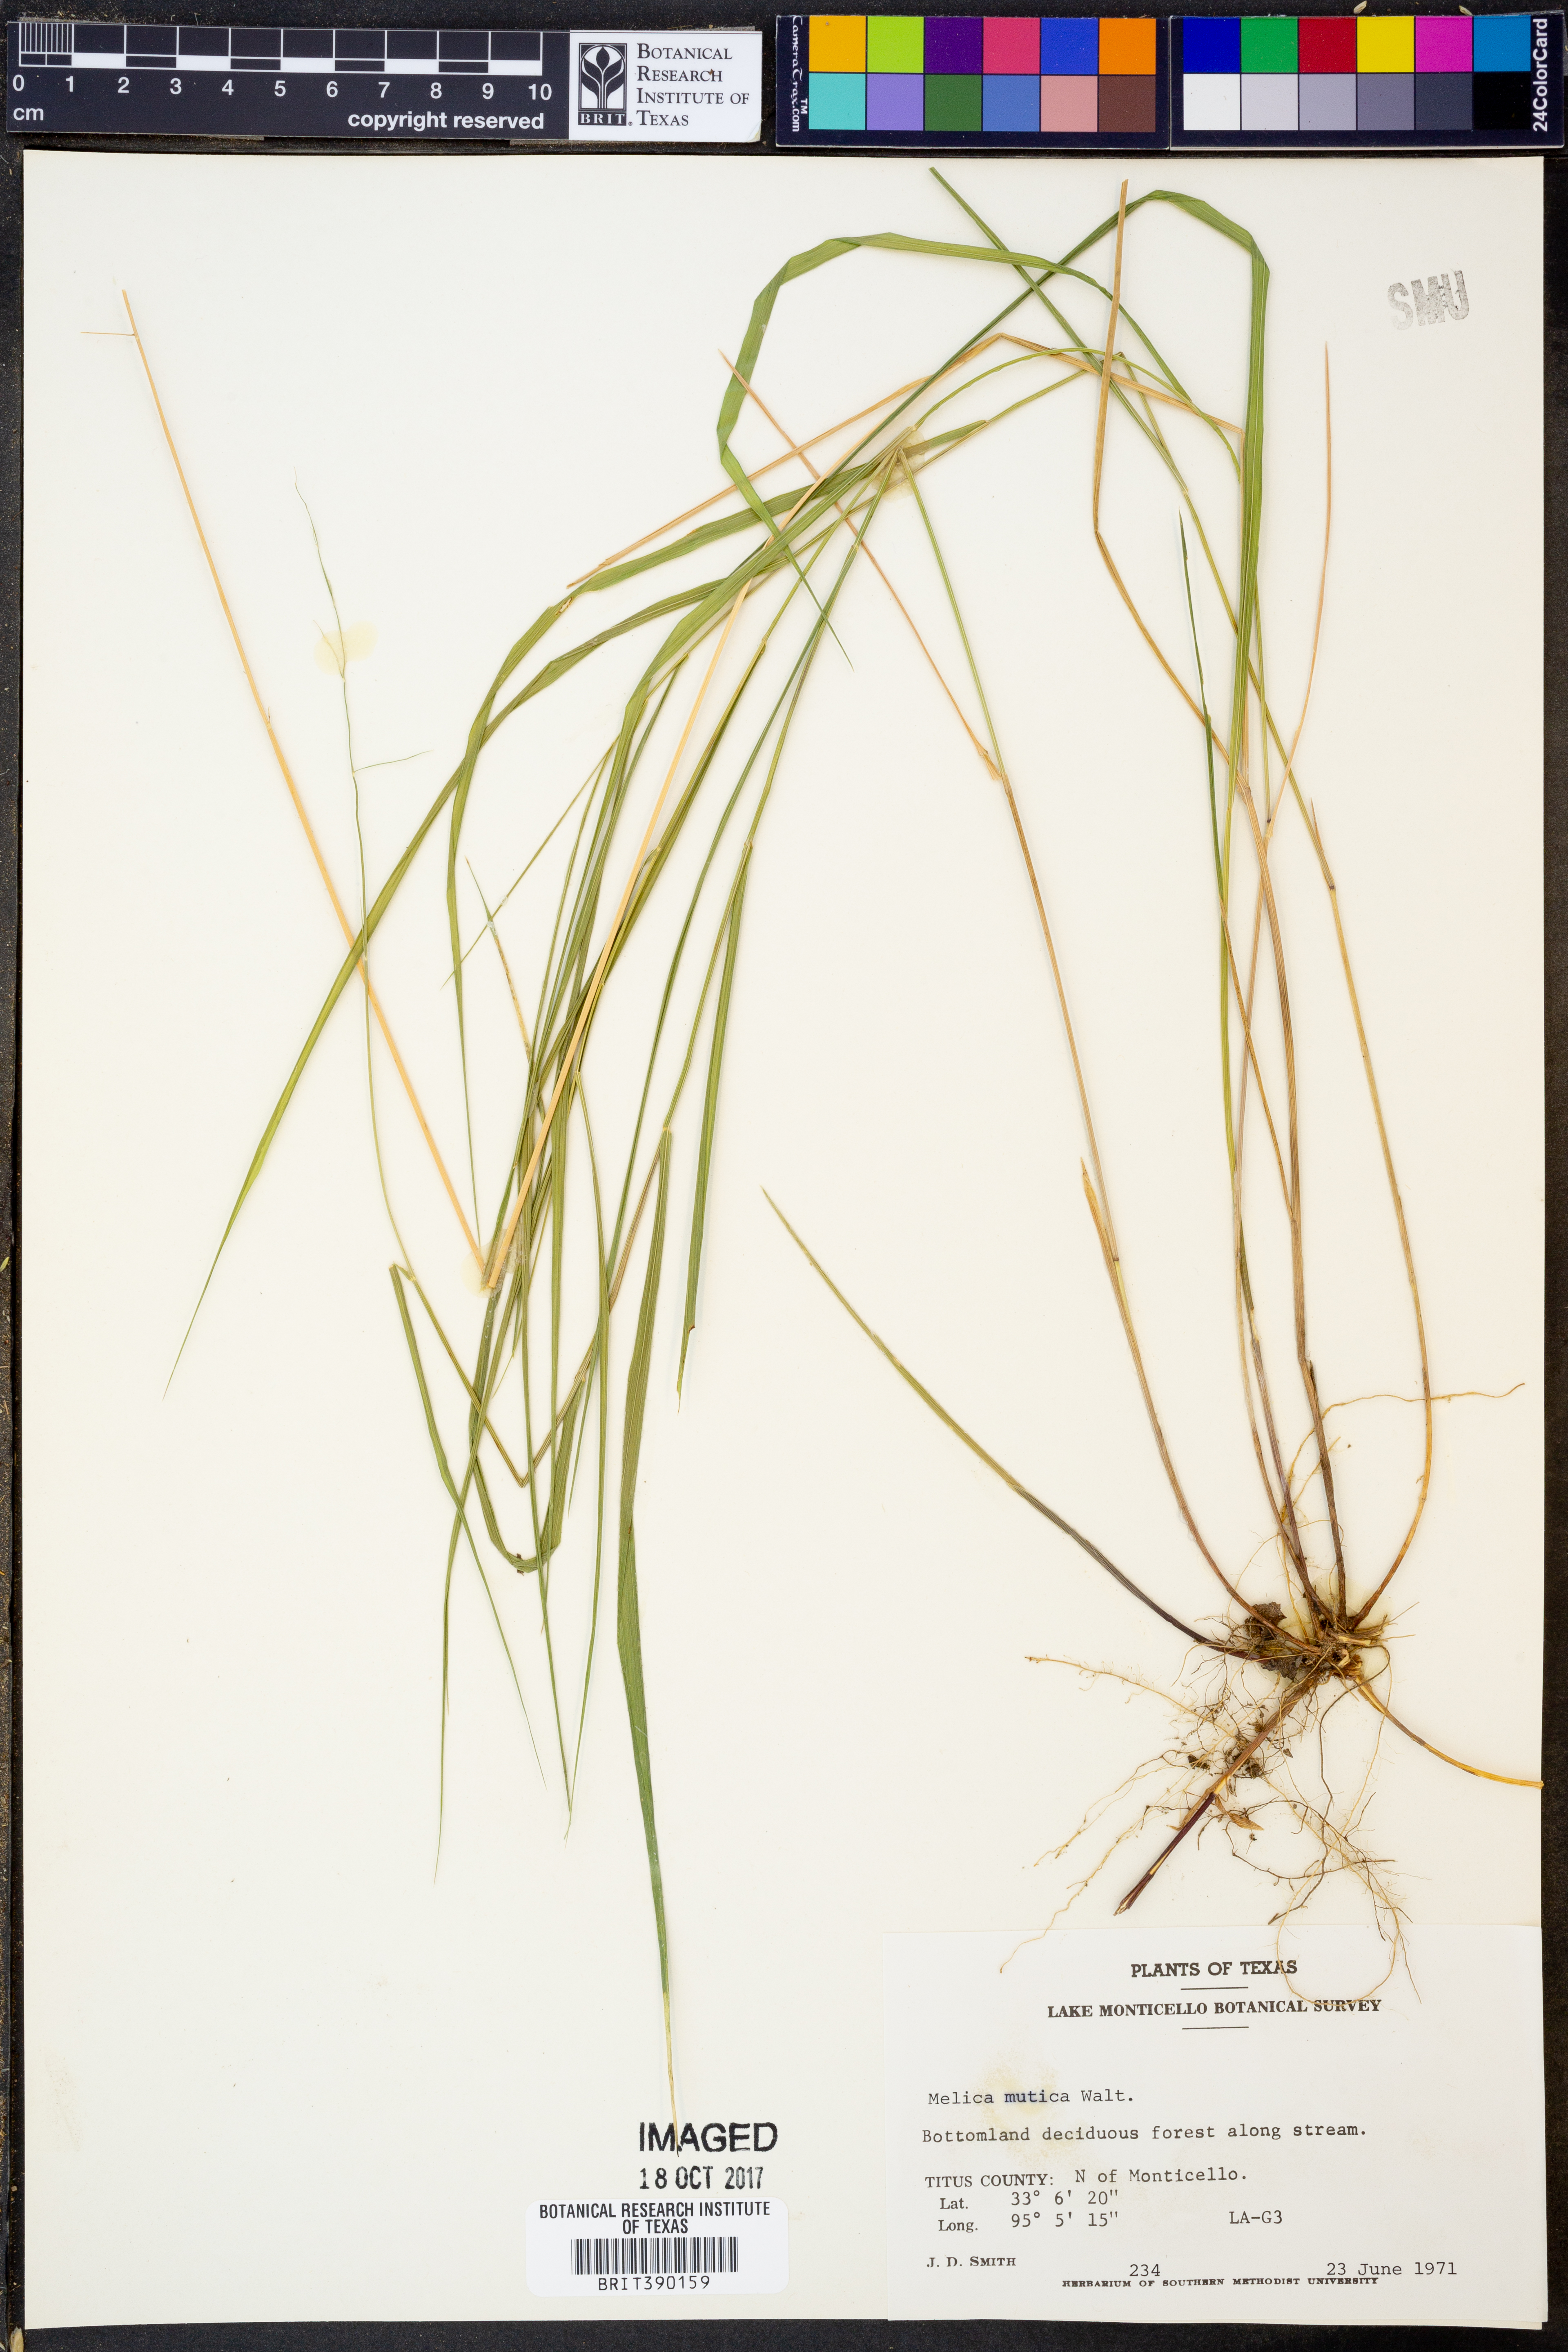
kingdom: Plantae
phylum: Tracheophyta
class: Liliopsida
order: Poales
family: Poaceae
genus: Melica
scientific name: Melica mutica
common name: Two-flower melic
